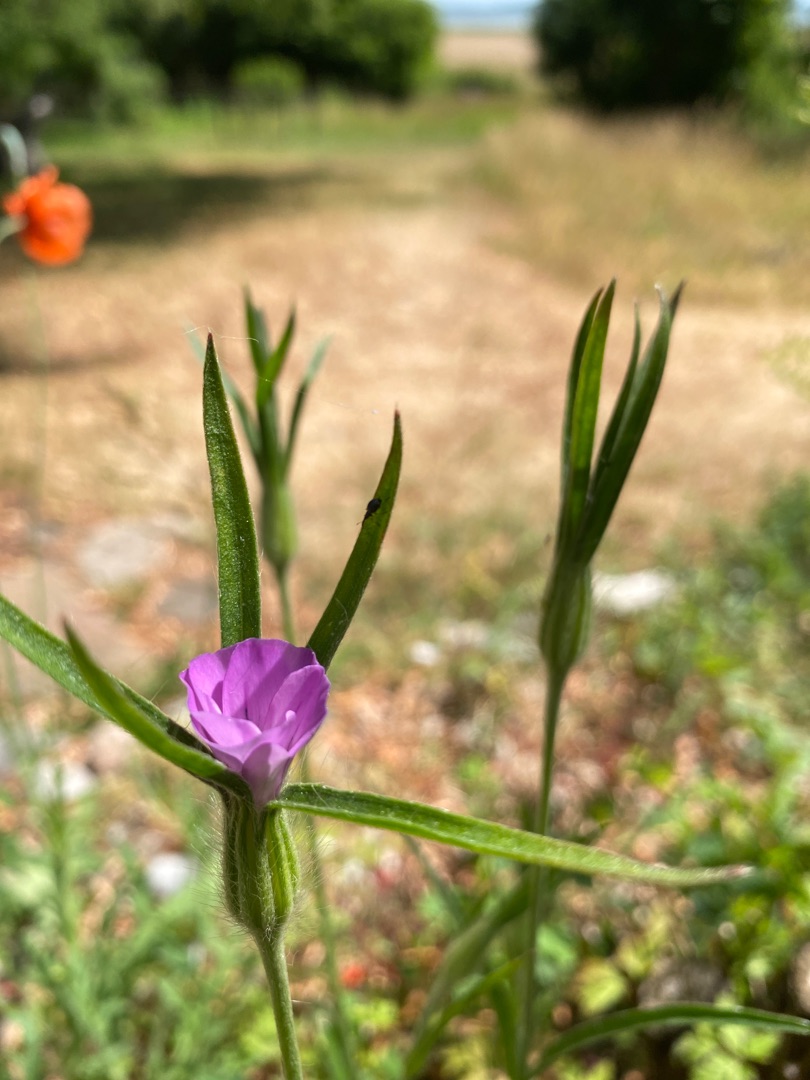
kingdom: Plantae
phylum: Tracheophyta
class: Magnoliopsida
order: Caryophyllales
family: Caryophyllaceae
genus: Agrostemma
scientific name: Agrostemma githago
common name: Klinte
